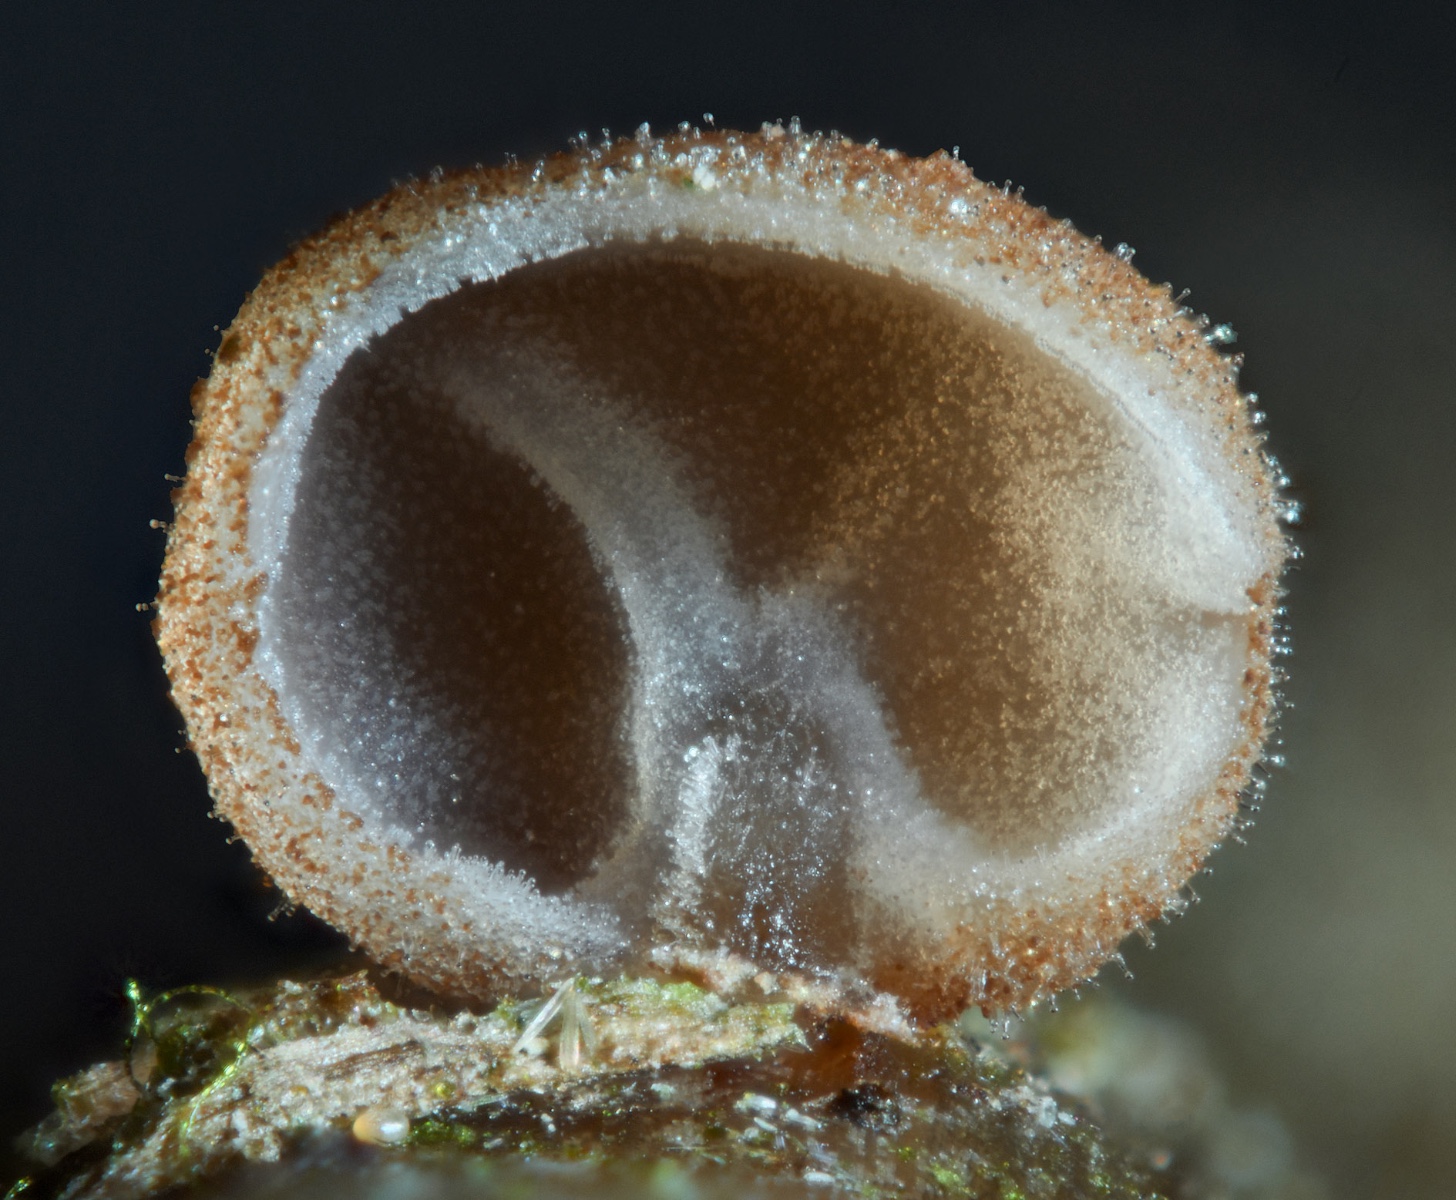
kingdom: Fungi
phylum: Basidiomycota
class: Agaricomycetes
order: Agaricales
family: Physalacriaceae
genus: Gloiocephala
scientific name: Gloiocephala menieri
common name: dunhammer-spatelhat
